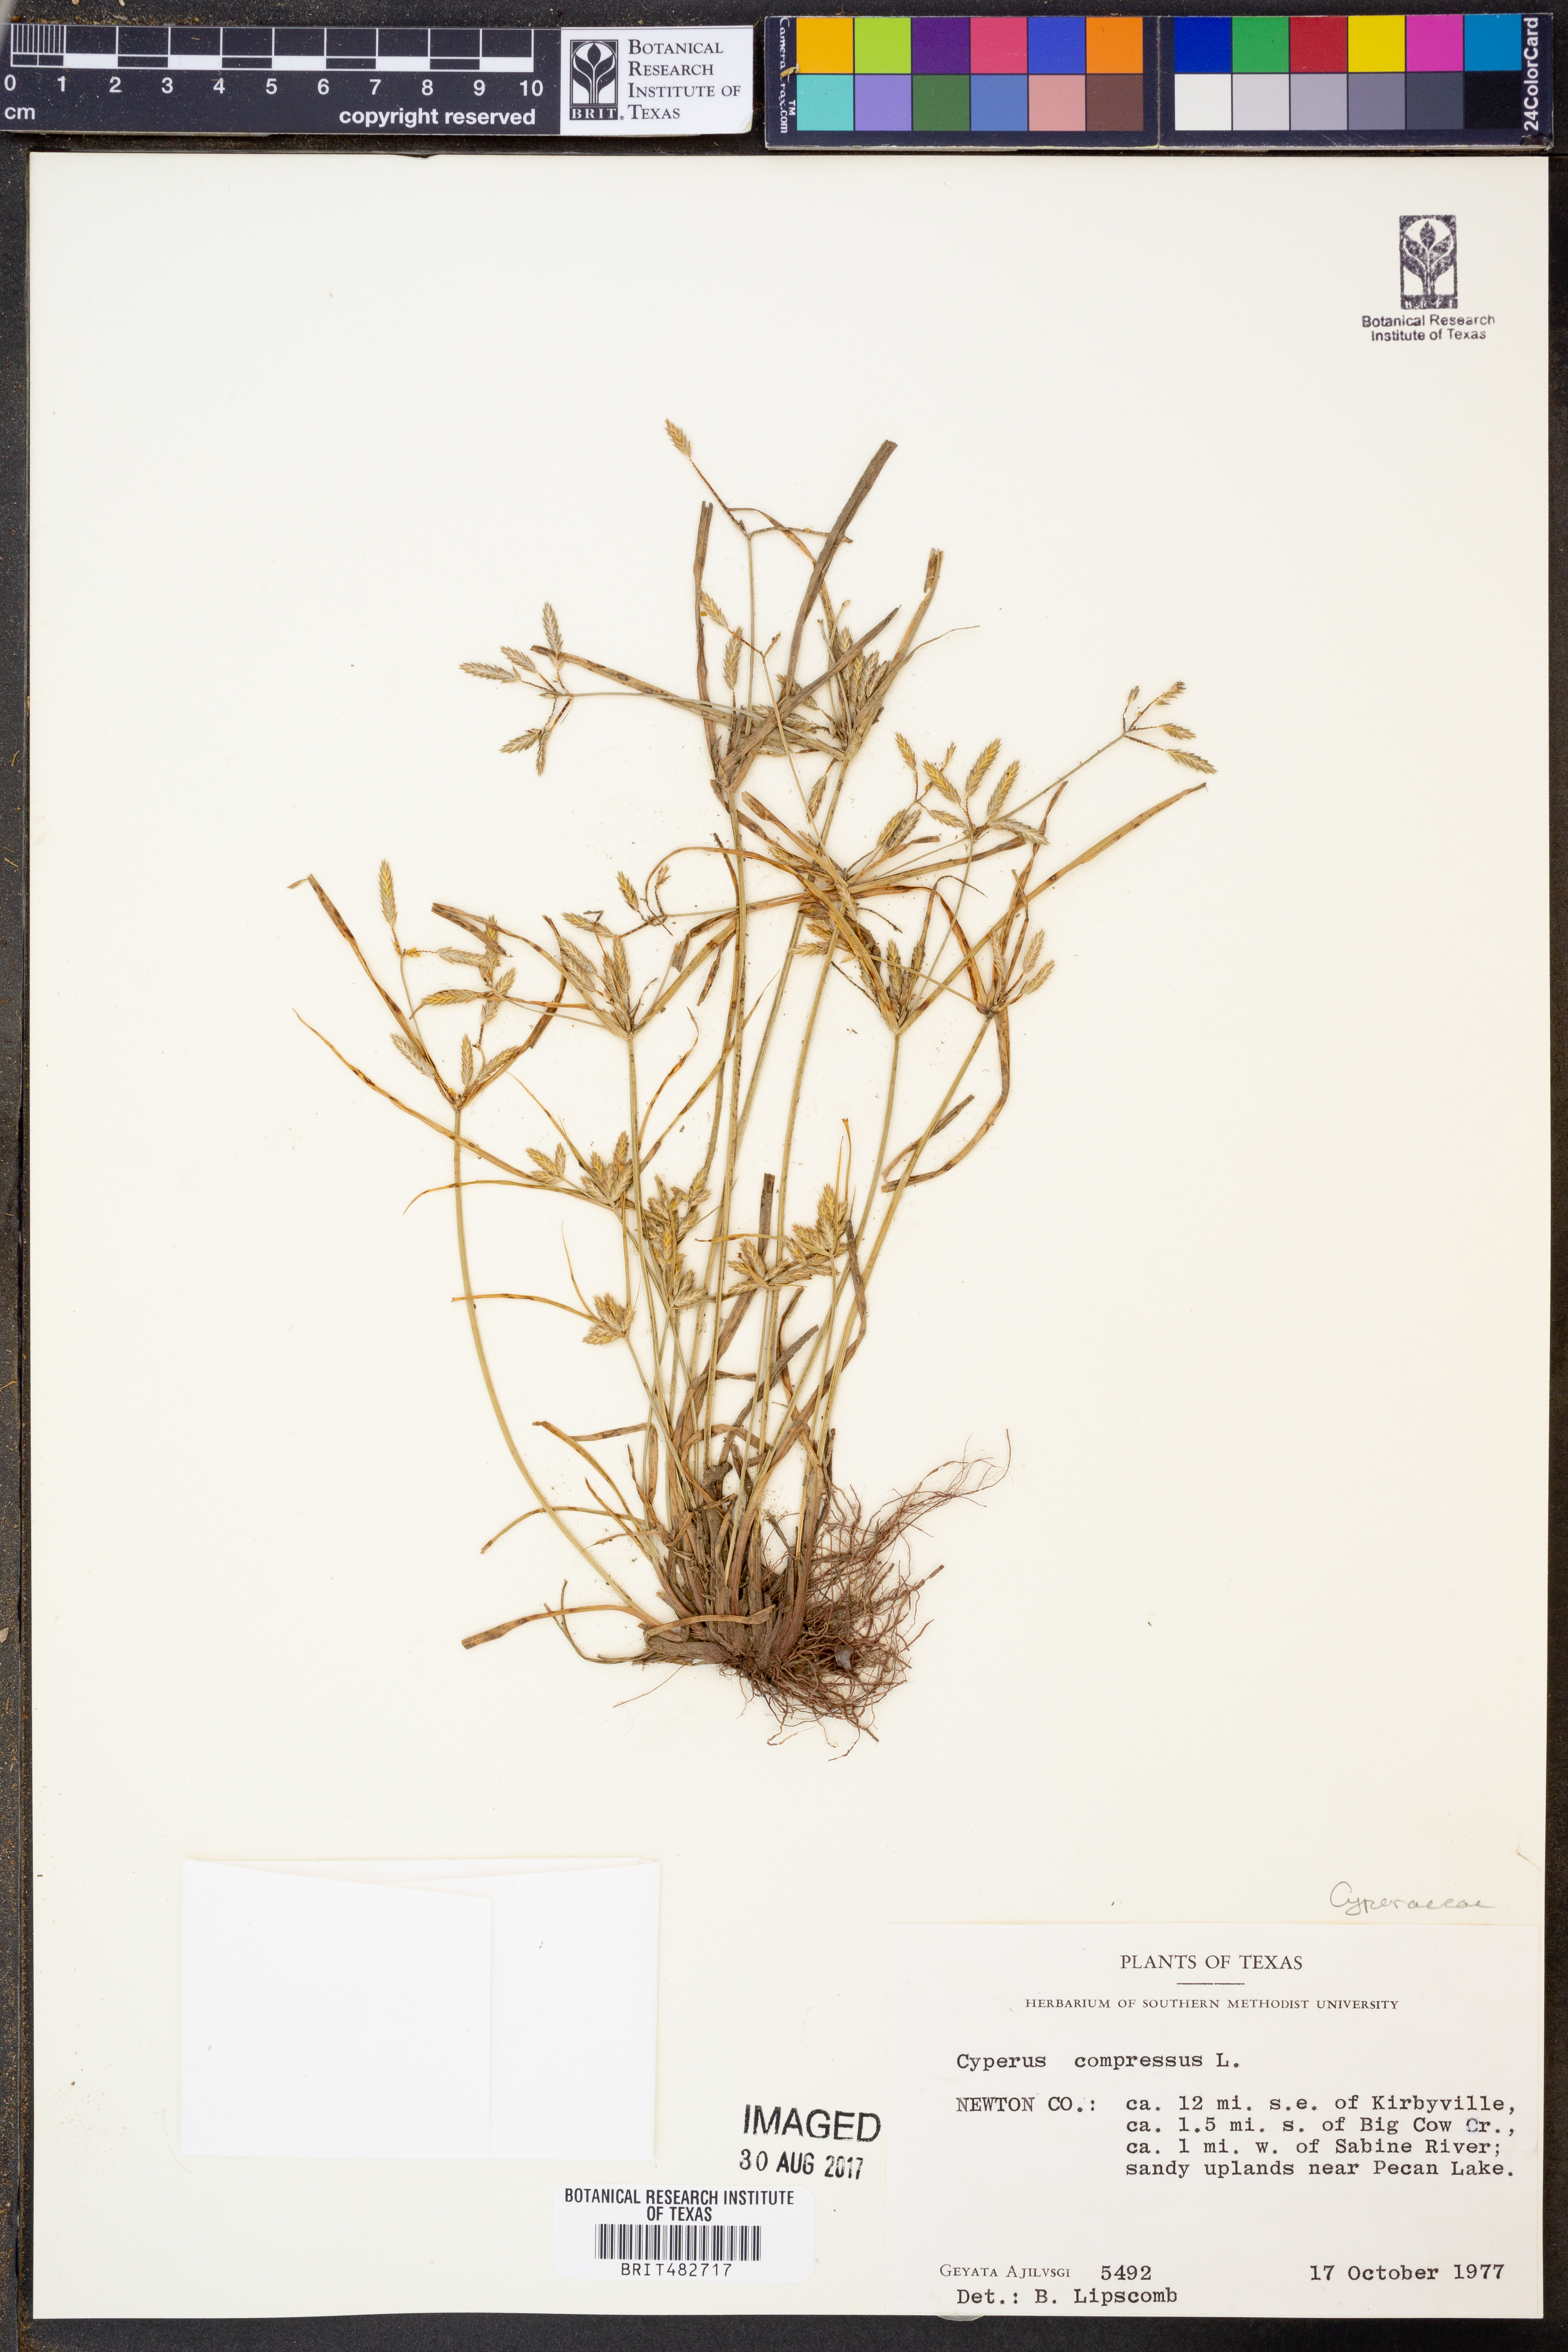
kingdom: Plantae
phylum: Tracheophyta
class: Liliopsida
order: Poales
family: Cyperaceae
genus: Cyperus
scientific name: Cyperus compressus
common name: Poorland flatsedge
